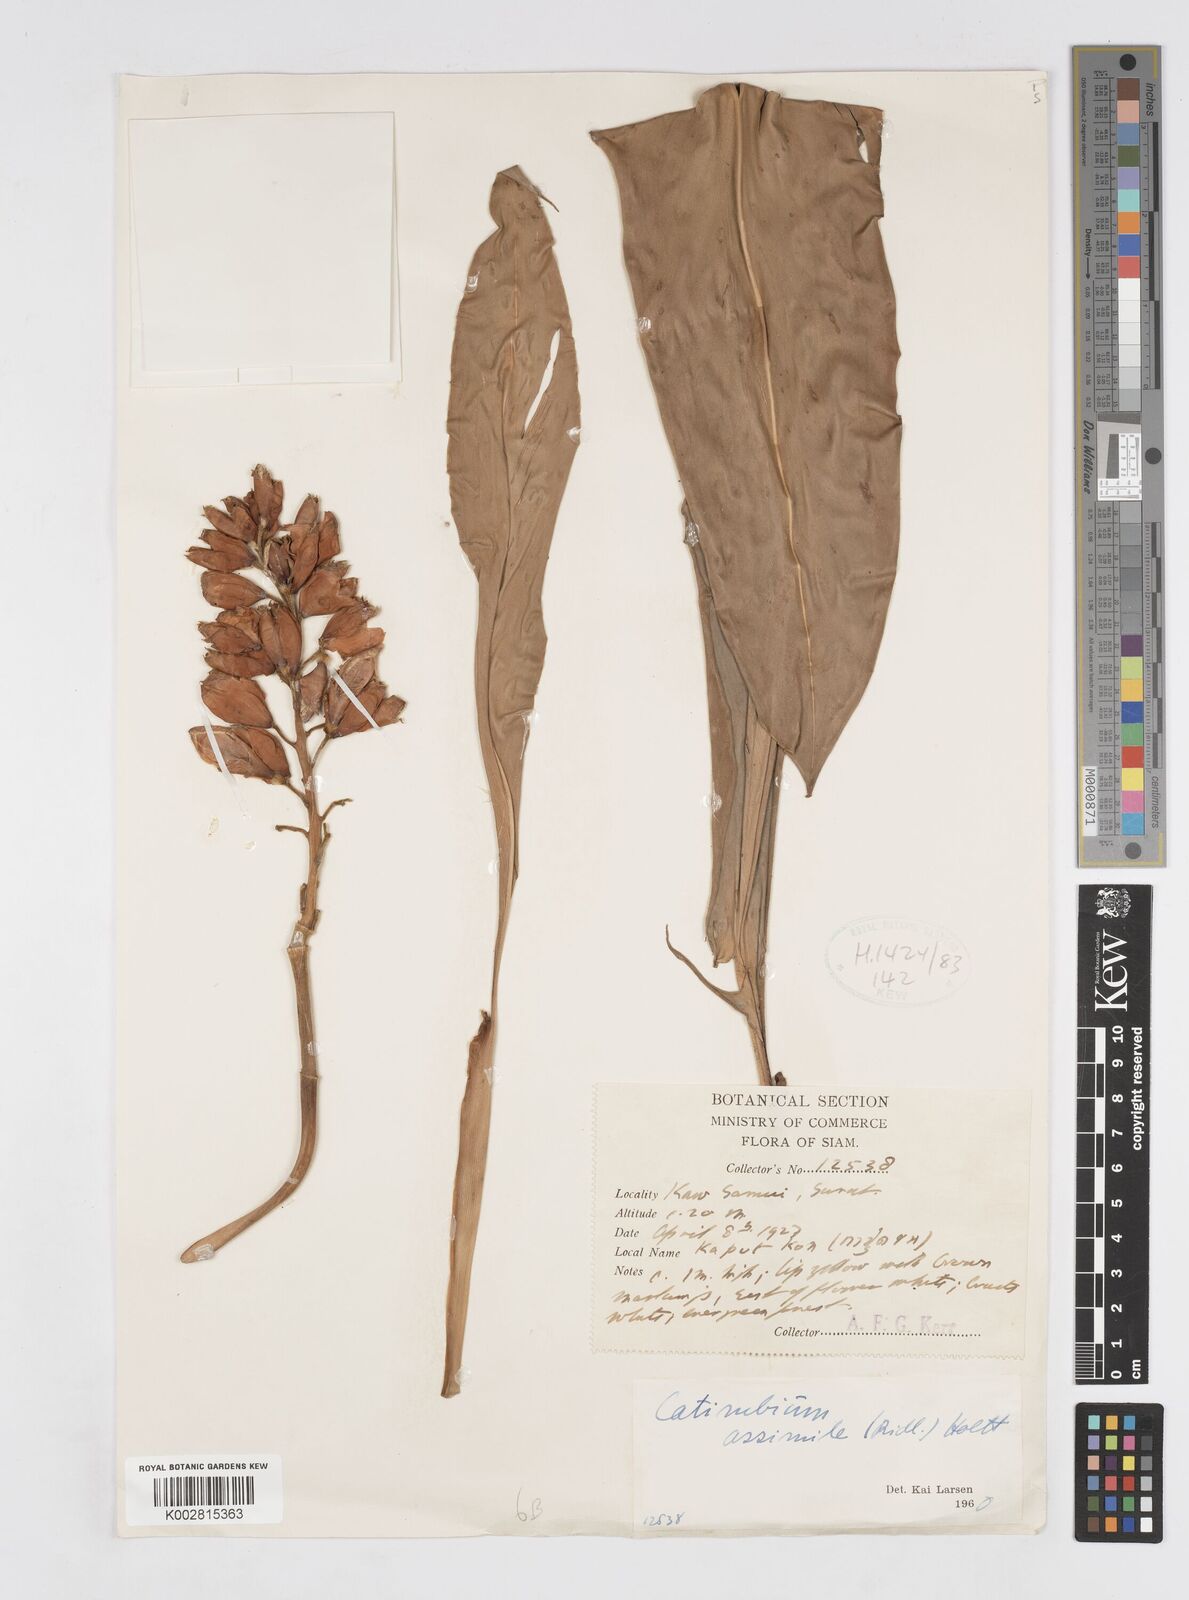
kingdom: Plantae
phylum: Tracheophyta
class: Liliopsida
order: Zingiberales
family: Zingiberaceae
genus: Alpinia
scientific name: Alpinia assimilis
